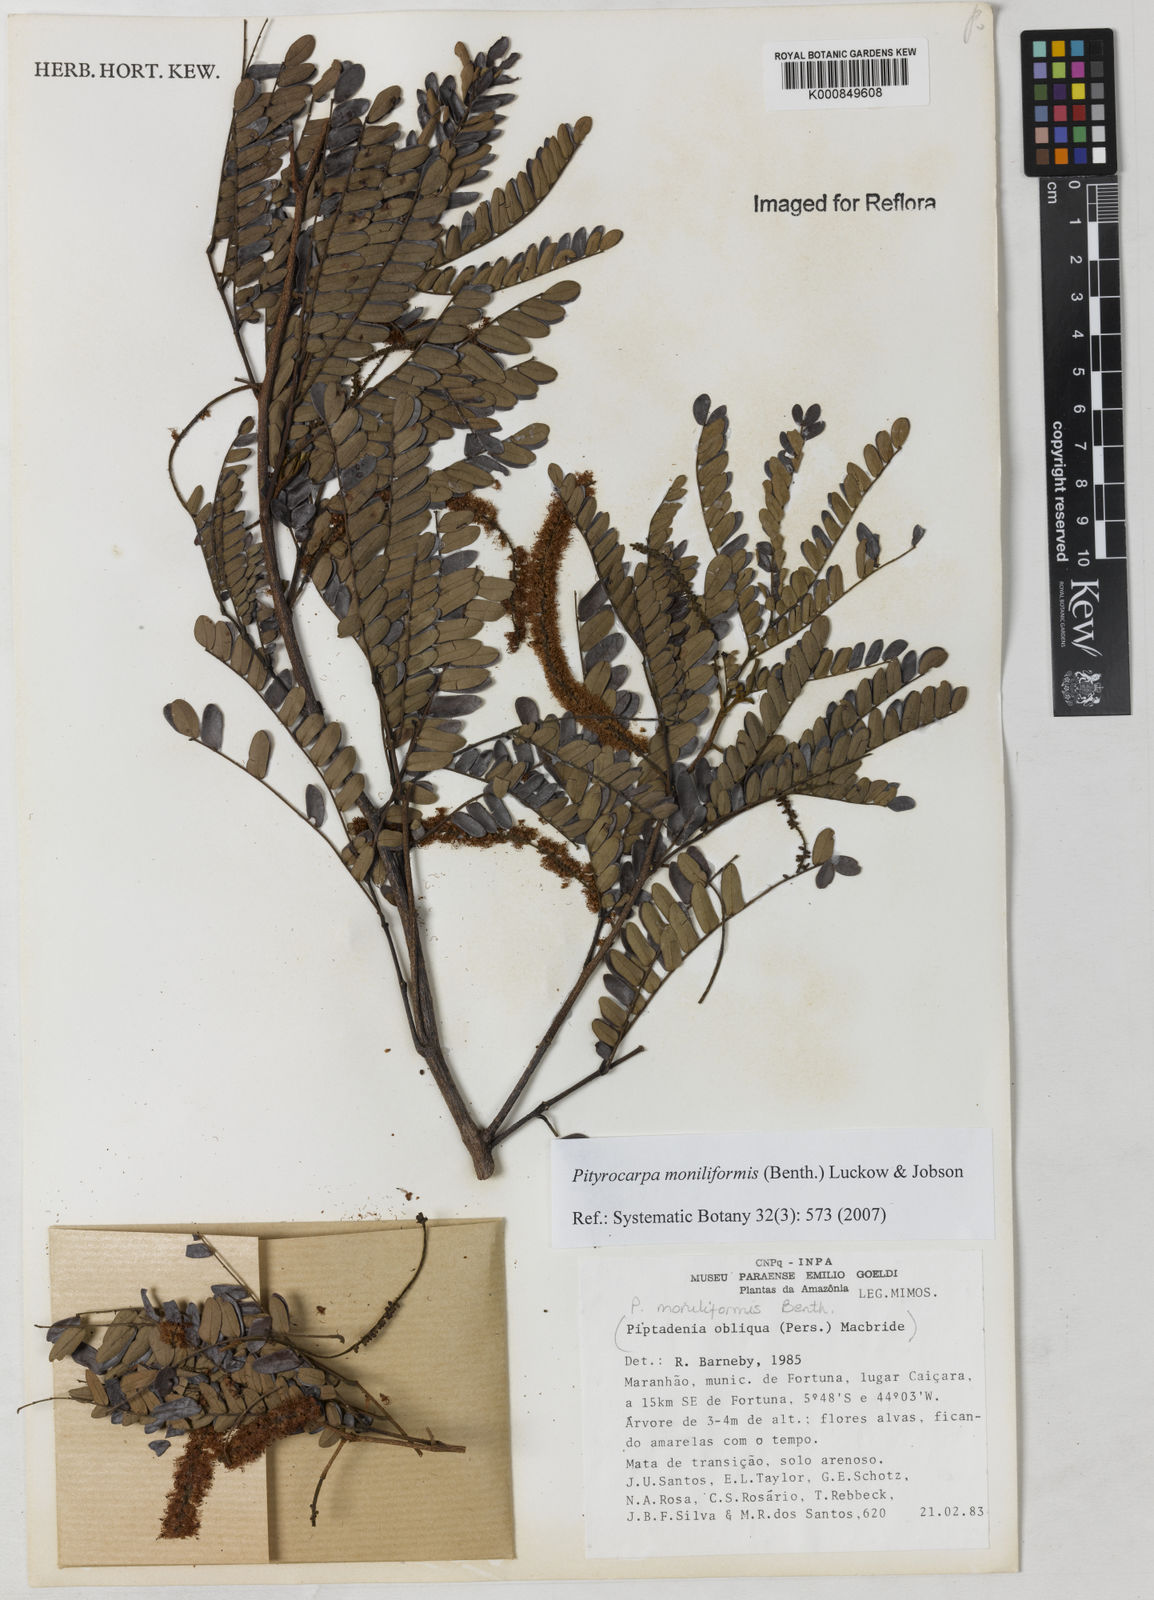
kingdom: Plantae
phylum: Tracheophyta
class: Magnoliopsida
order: Fabales
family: Fabaceae
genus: Pityrocarpa
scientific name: Pityrocarpa moniliformis
